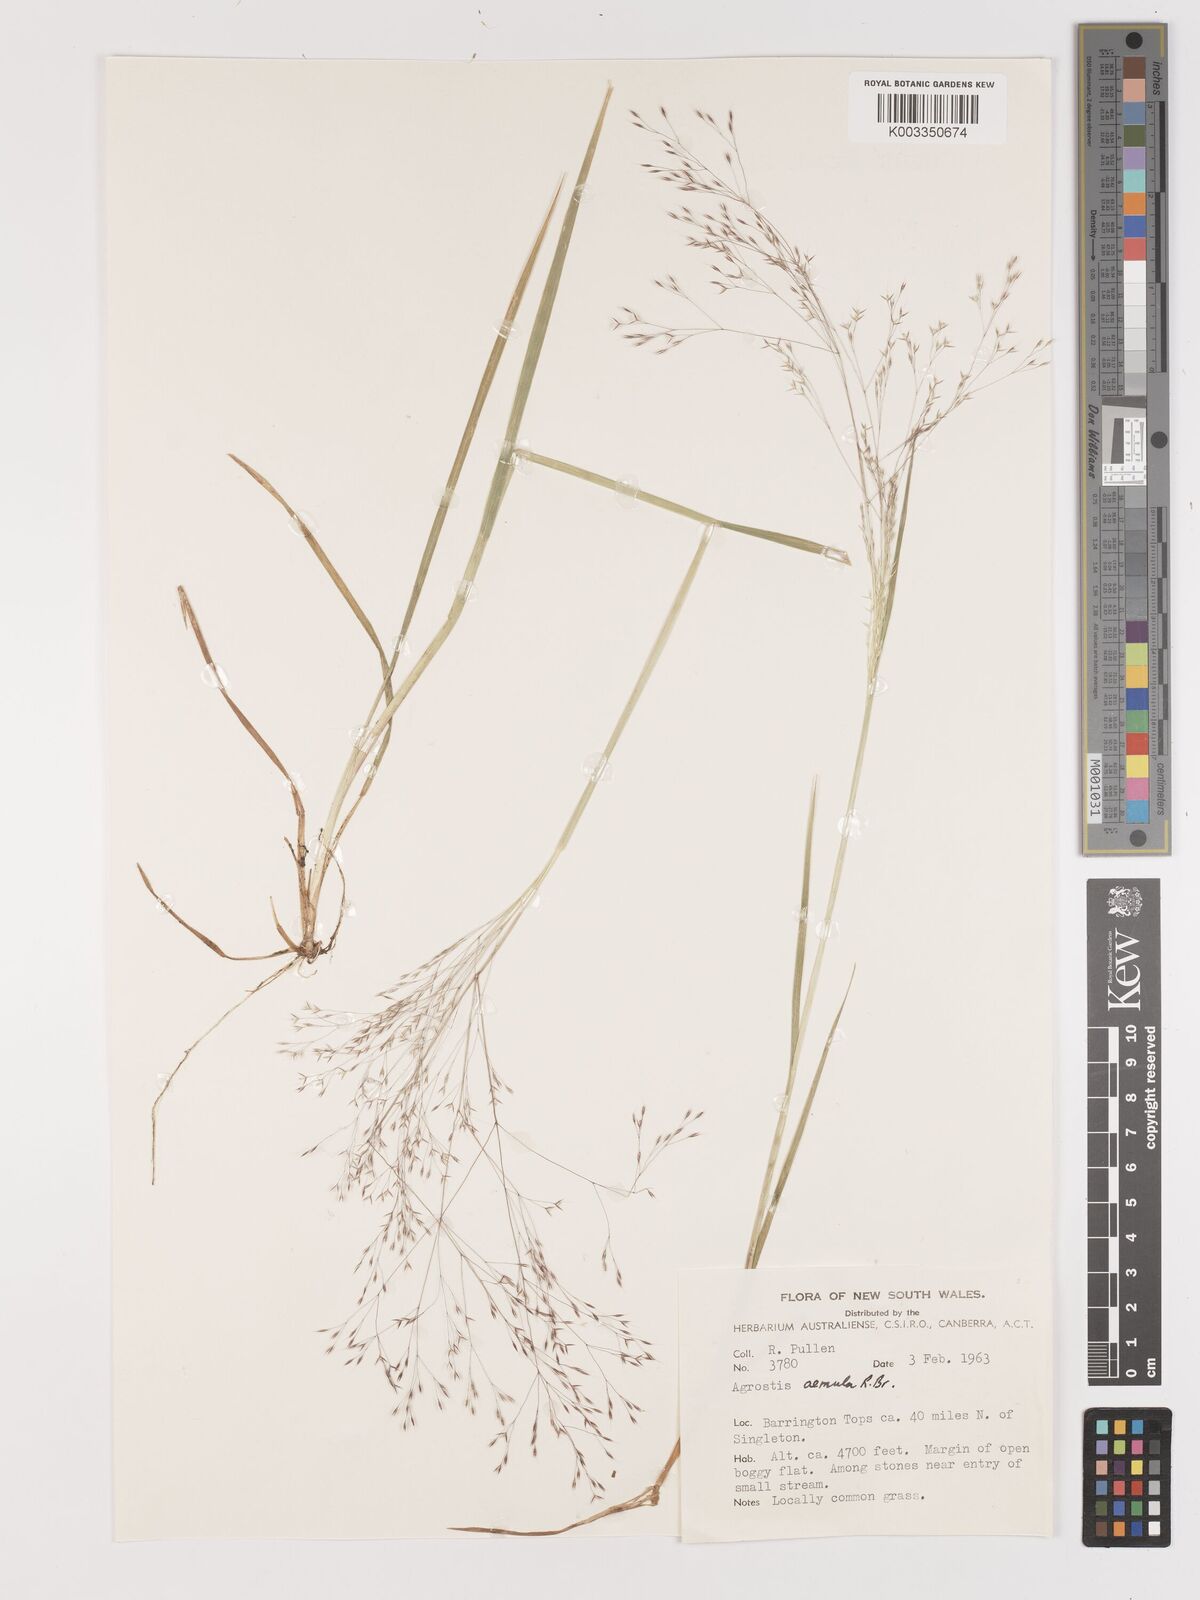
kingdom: Plantae
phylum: Tracheophyta
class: Liliopsida
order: Poales
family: Poaceae
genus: Lachnagrostis
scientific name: Lachnagrostis aemula
